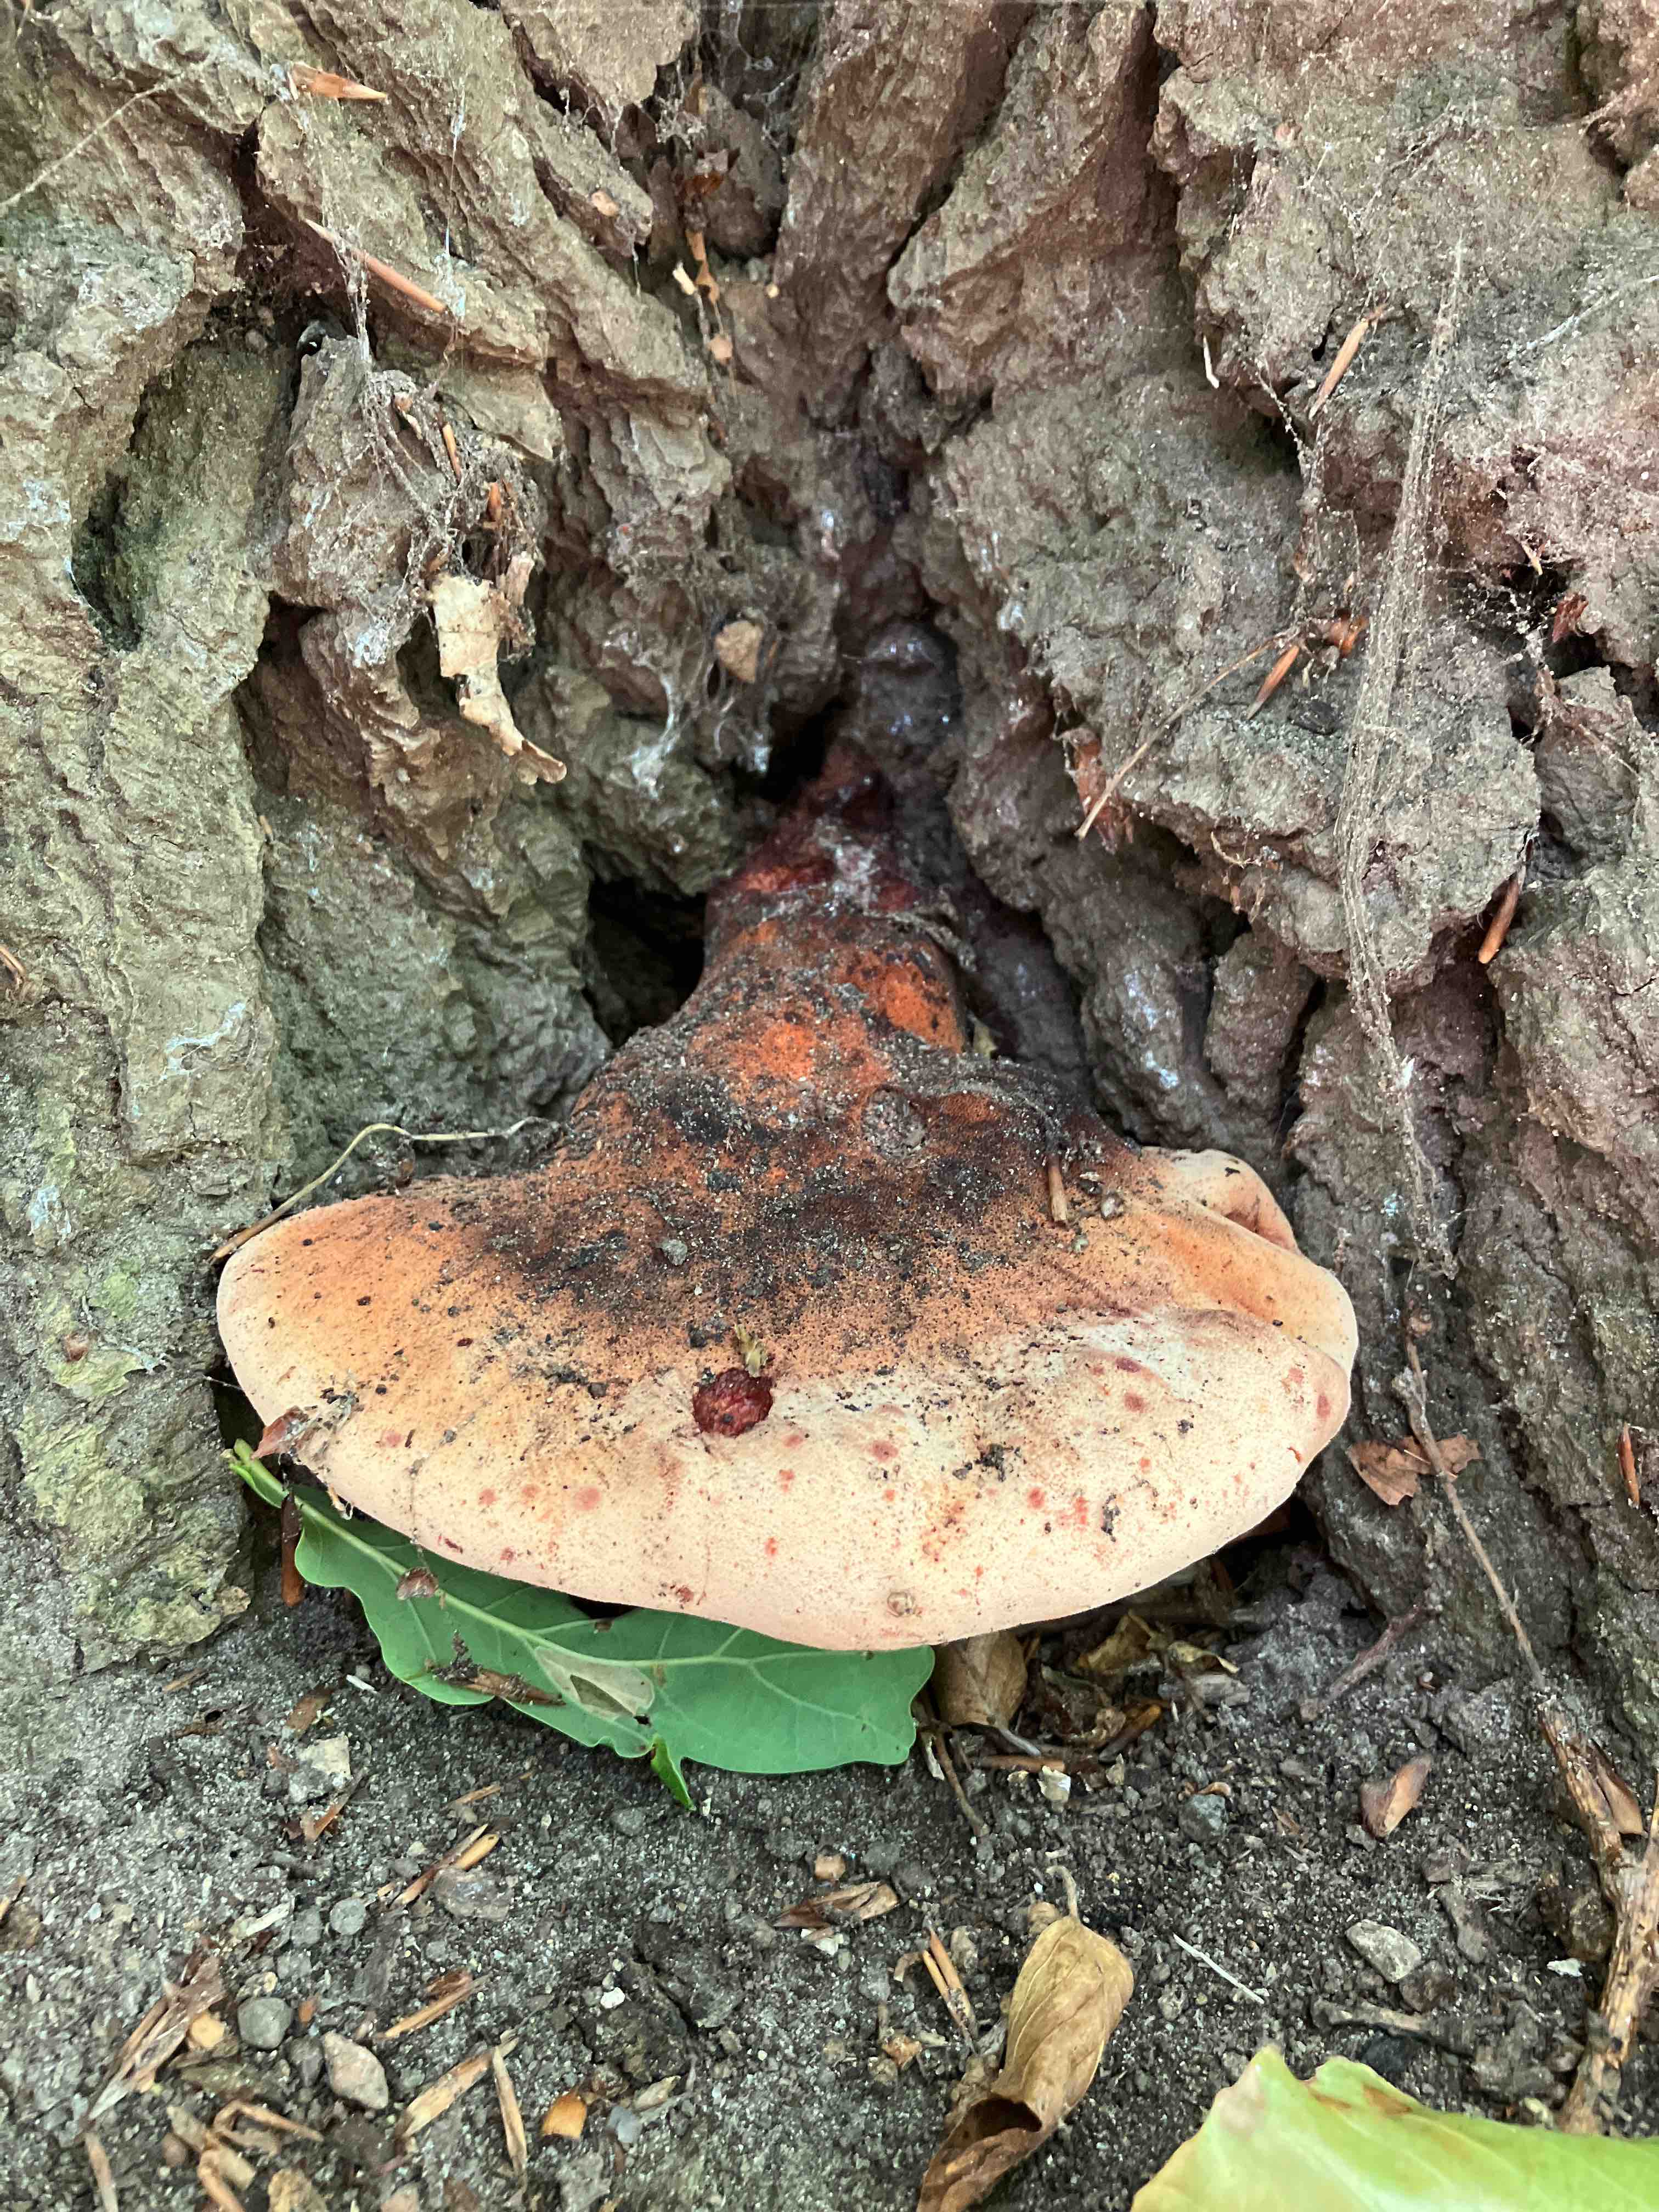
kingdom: Fungi
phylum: Basidiomycota
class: Agaricomycetes
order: Agaricales
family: Fistulinaceae
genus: Fistulina
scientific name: Fistulina hepatica
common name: oksetunge
